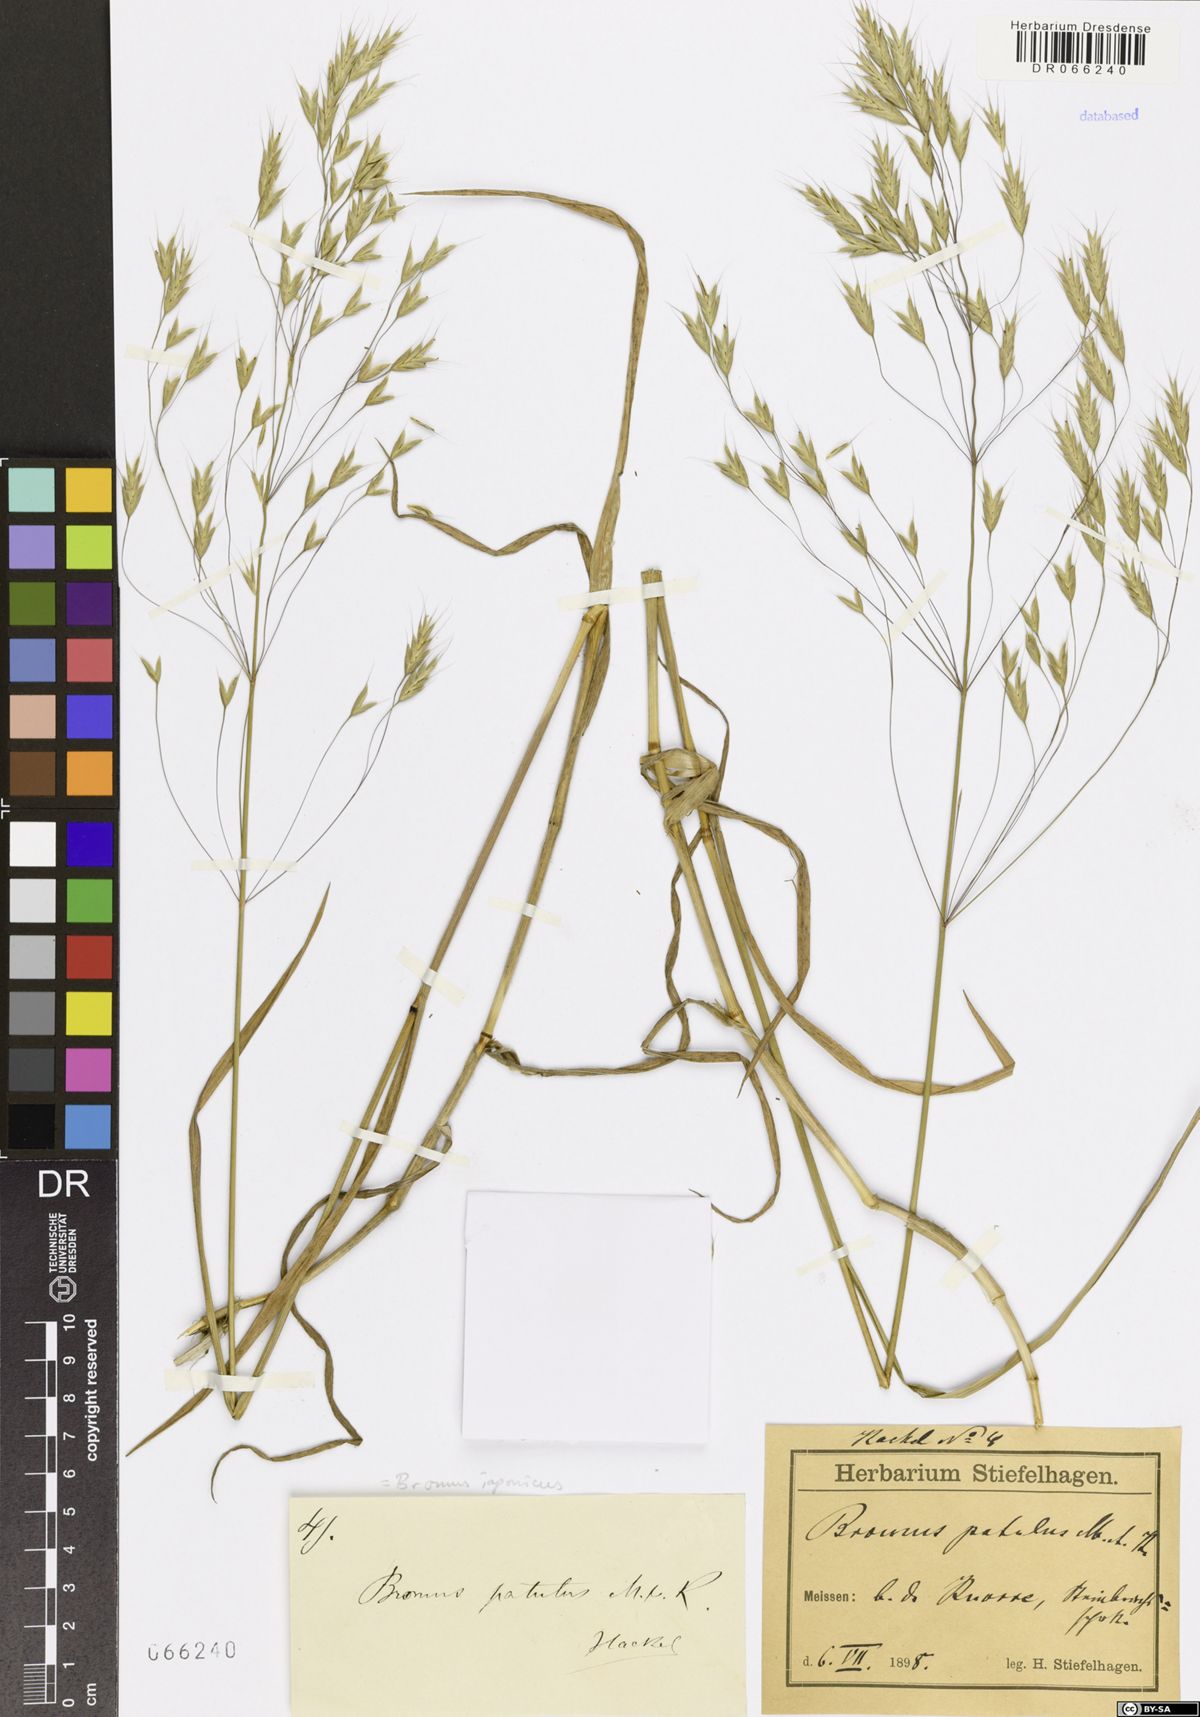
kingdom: Plantae
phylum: Tracheophyta
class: Liliopsida
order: Poales
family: Poaceae
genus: Bromus
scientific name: Bromus japonicus
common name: Japanese brome
